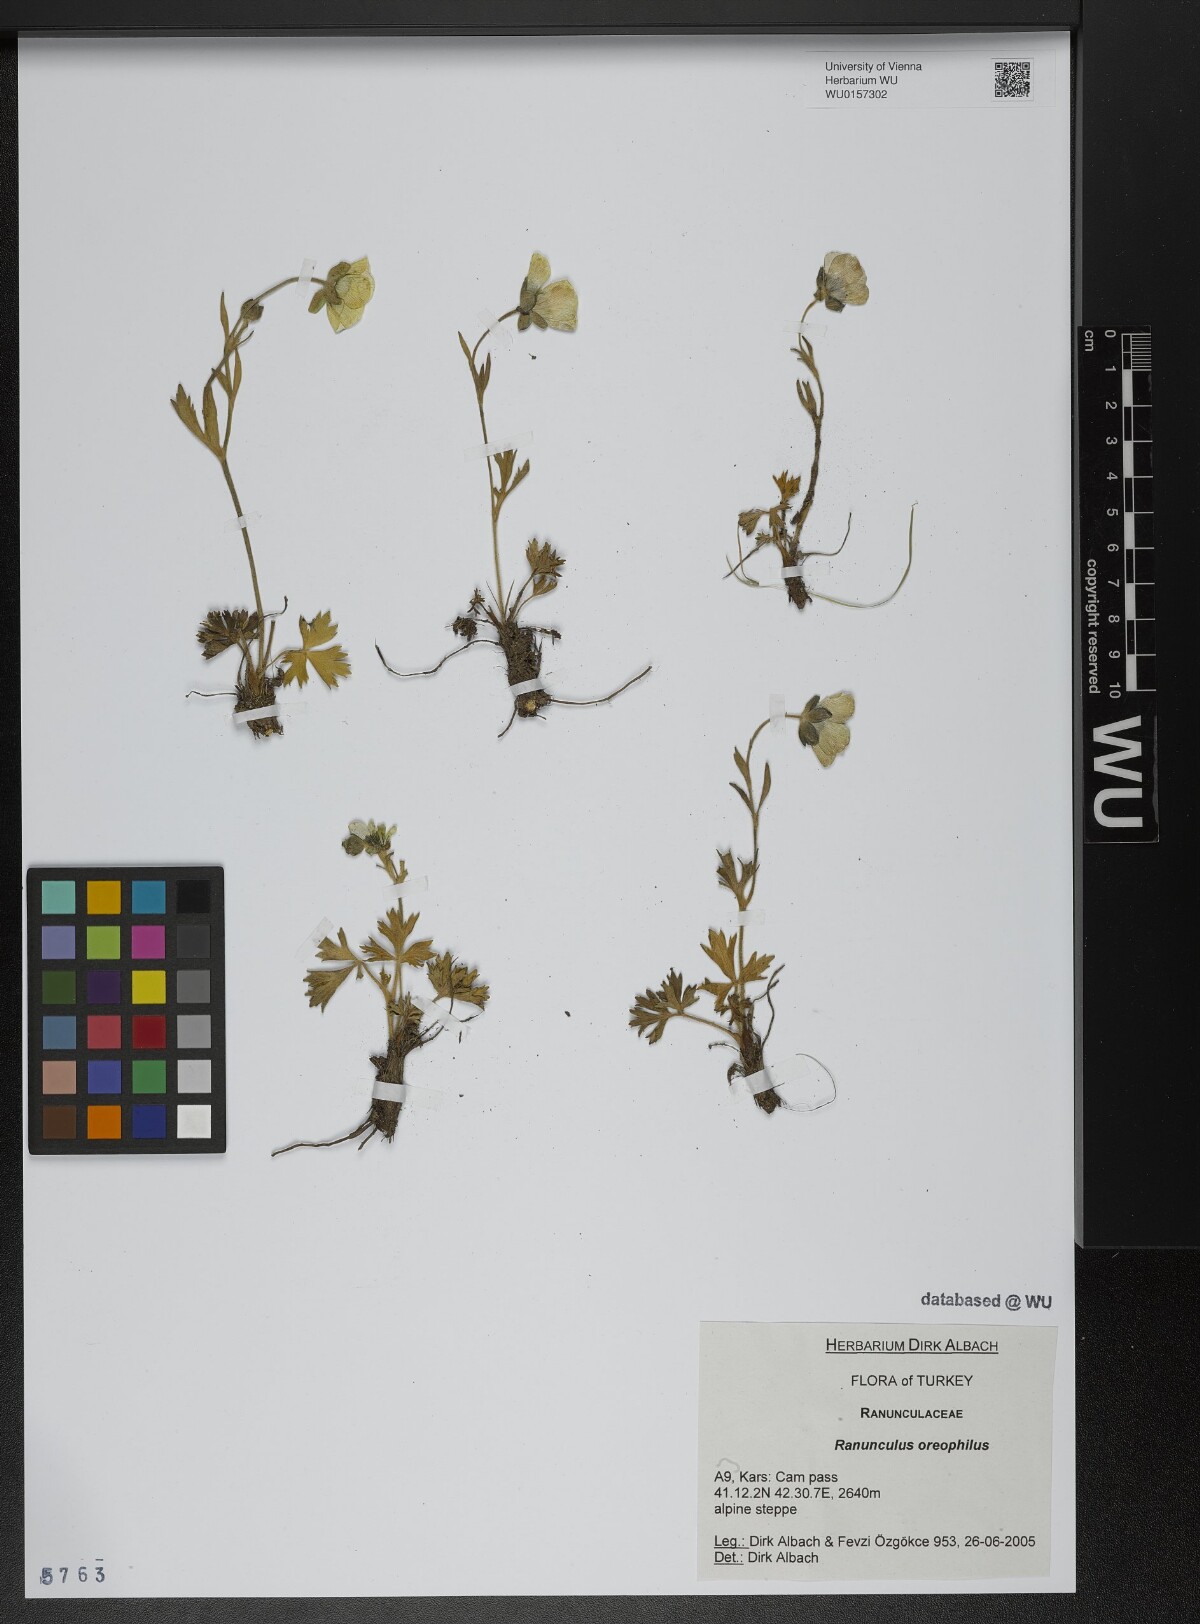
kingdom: Plantae
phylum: Tracheophyta
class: Magnoliopsida
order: Ranunculales
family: Ranunculaceae
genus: Ranunculus
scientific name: Ranunculus breyninus
